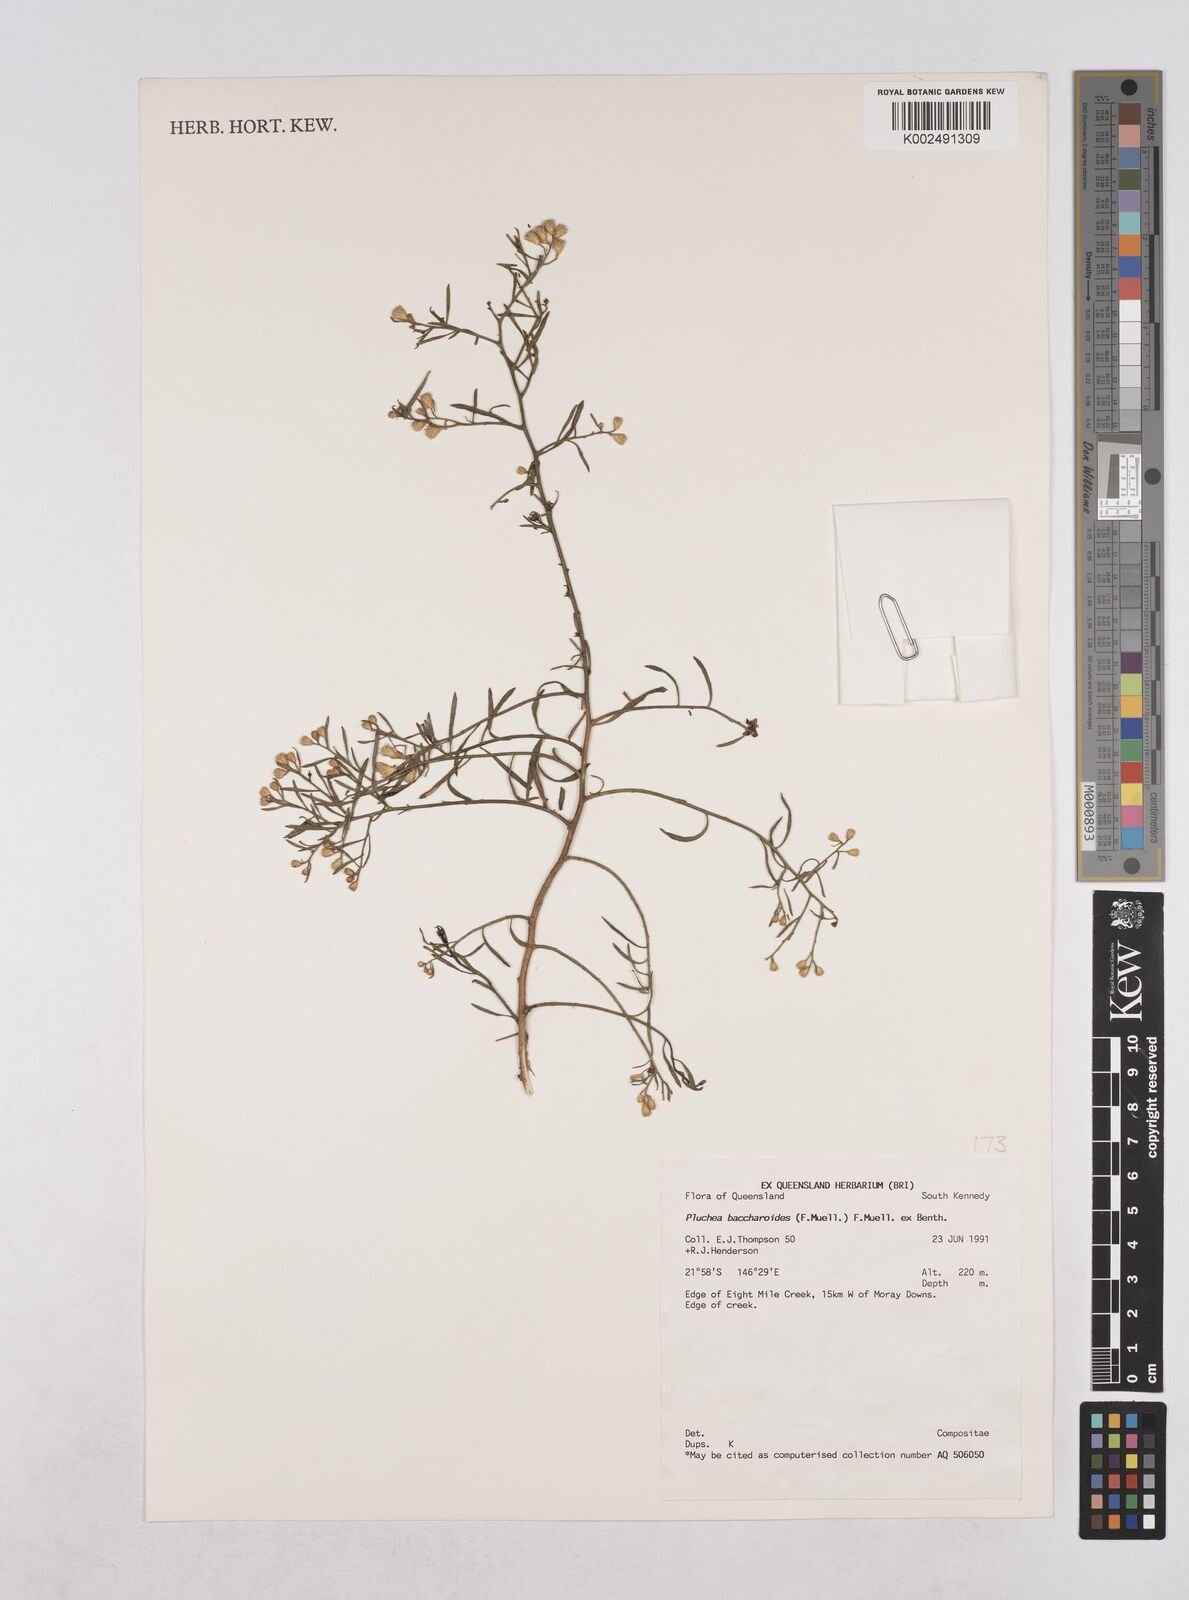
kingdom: Plantae
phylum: Tracheophyta
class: Magnoliopsida
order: Asterales
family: Asteraceae
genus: Pluchea
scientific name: Pluchea baccharoides
